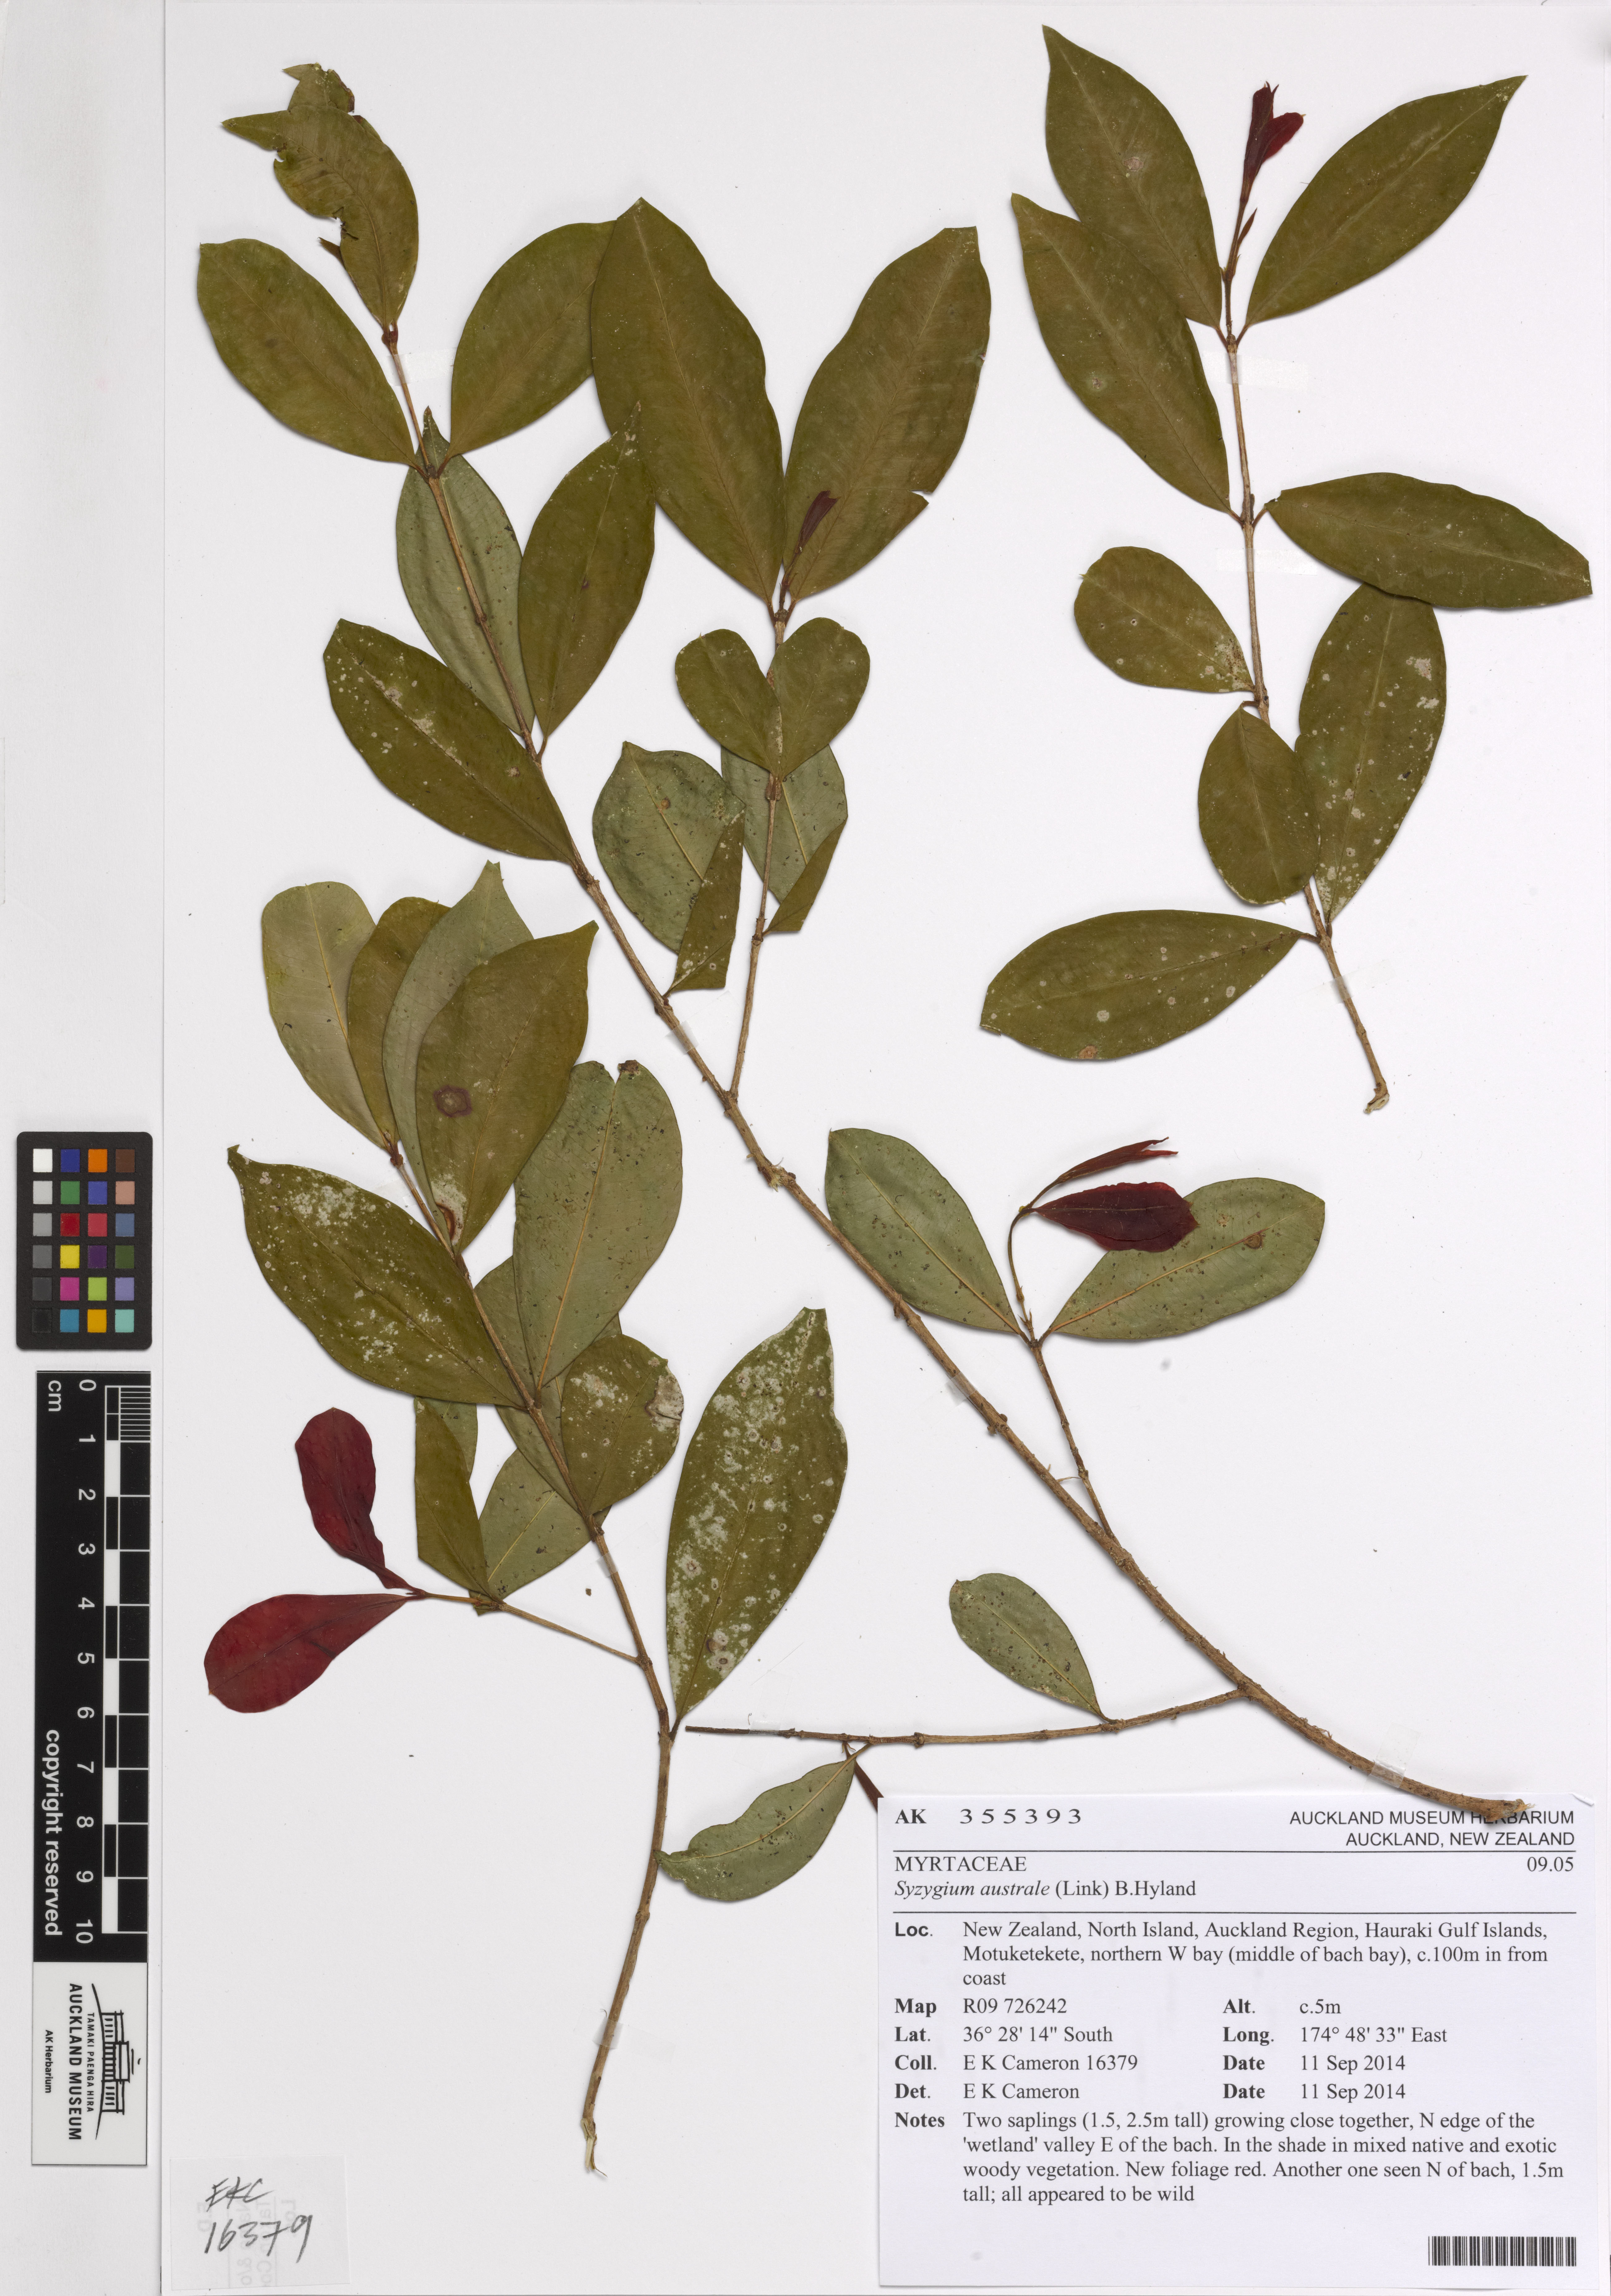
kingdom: Plantae
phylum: Tracheophyta
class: Magnoliopsida
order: Myrtales
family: Myrtaceae
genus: Syzygium
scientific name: Syzygium australe
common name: Australian brush-cherry
